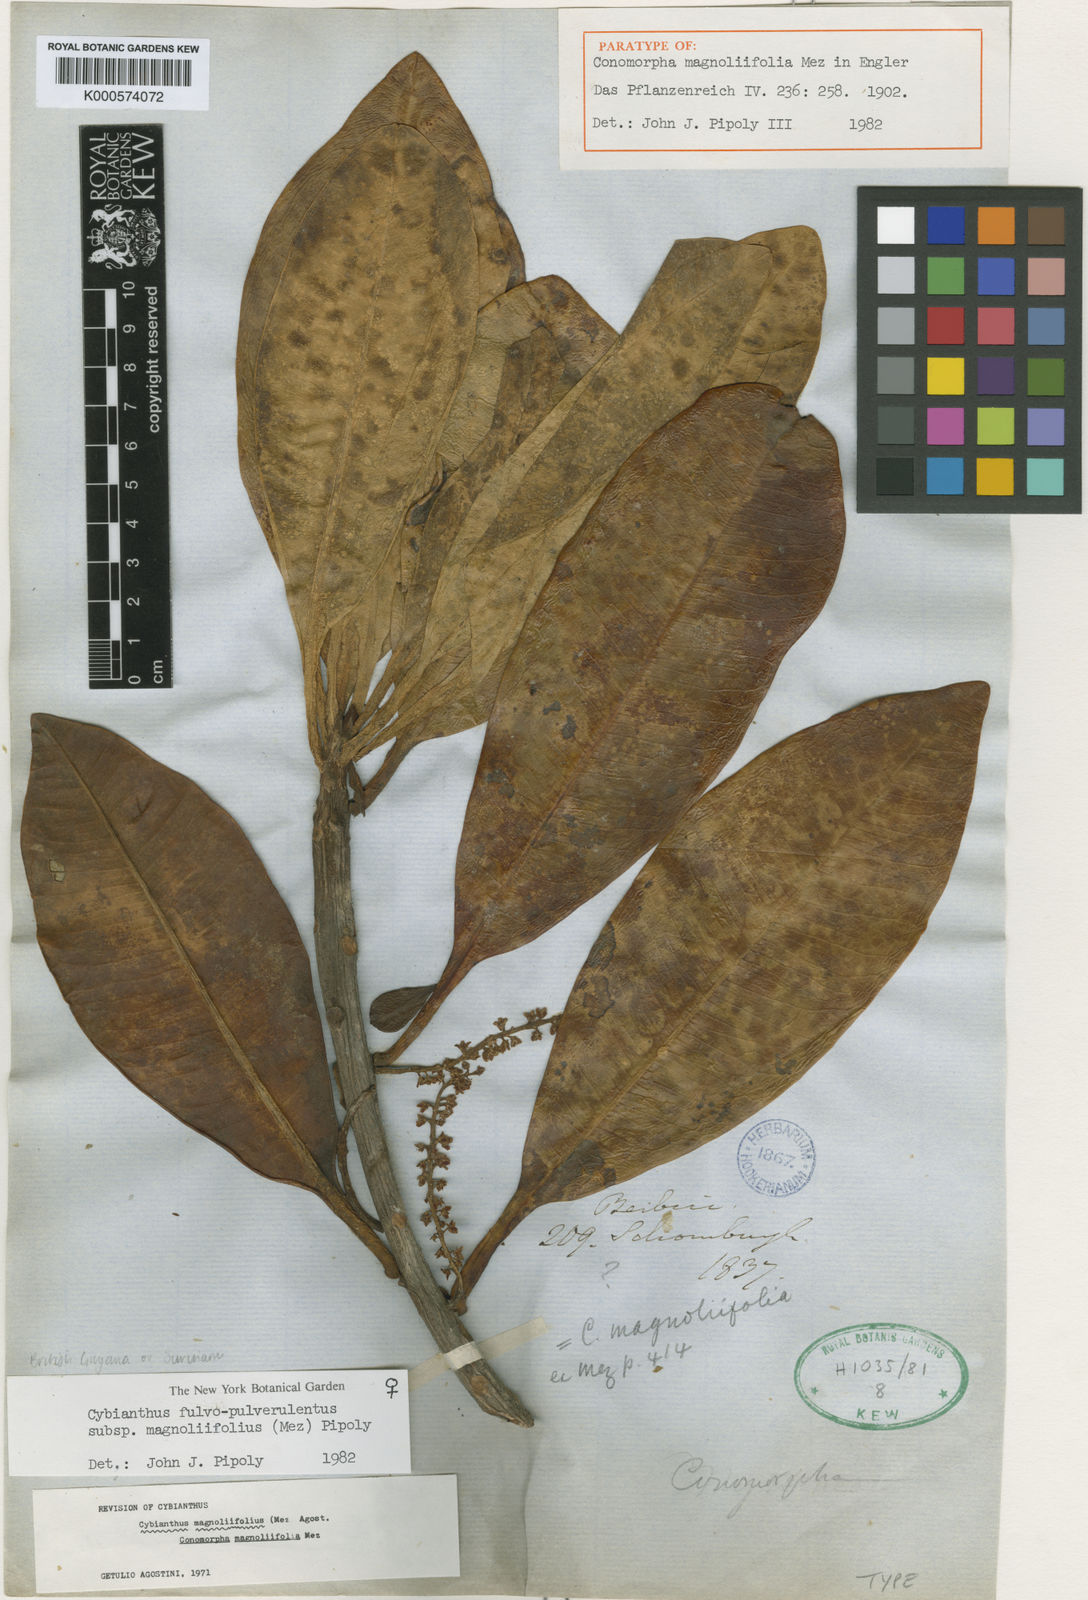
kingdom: Plantae
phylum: Tracheophyta
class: Magnoliopsida
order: Ericales
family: Primulaceae
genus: Cybianthus
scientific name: Cybianthus fulvopulverulentus
